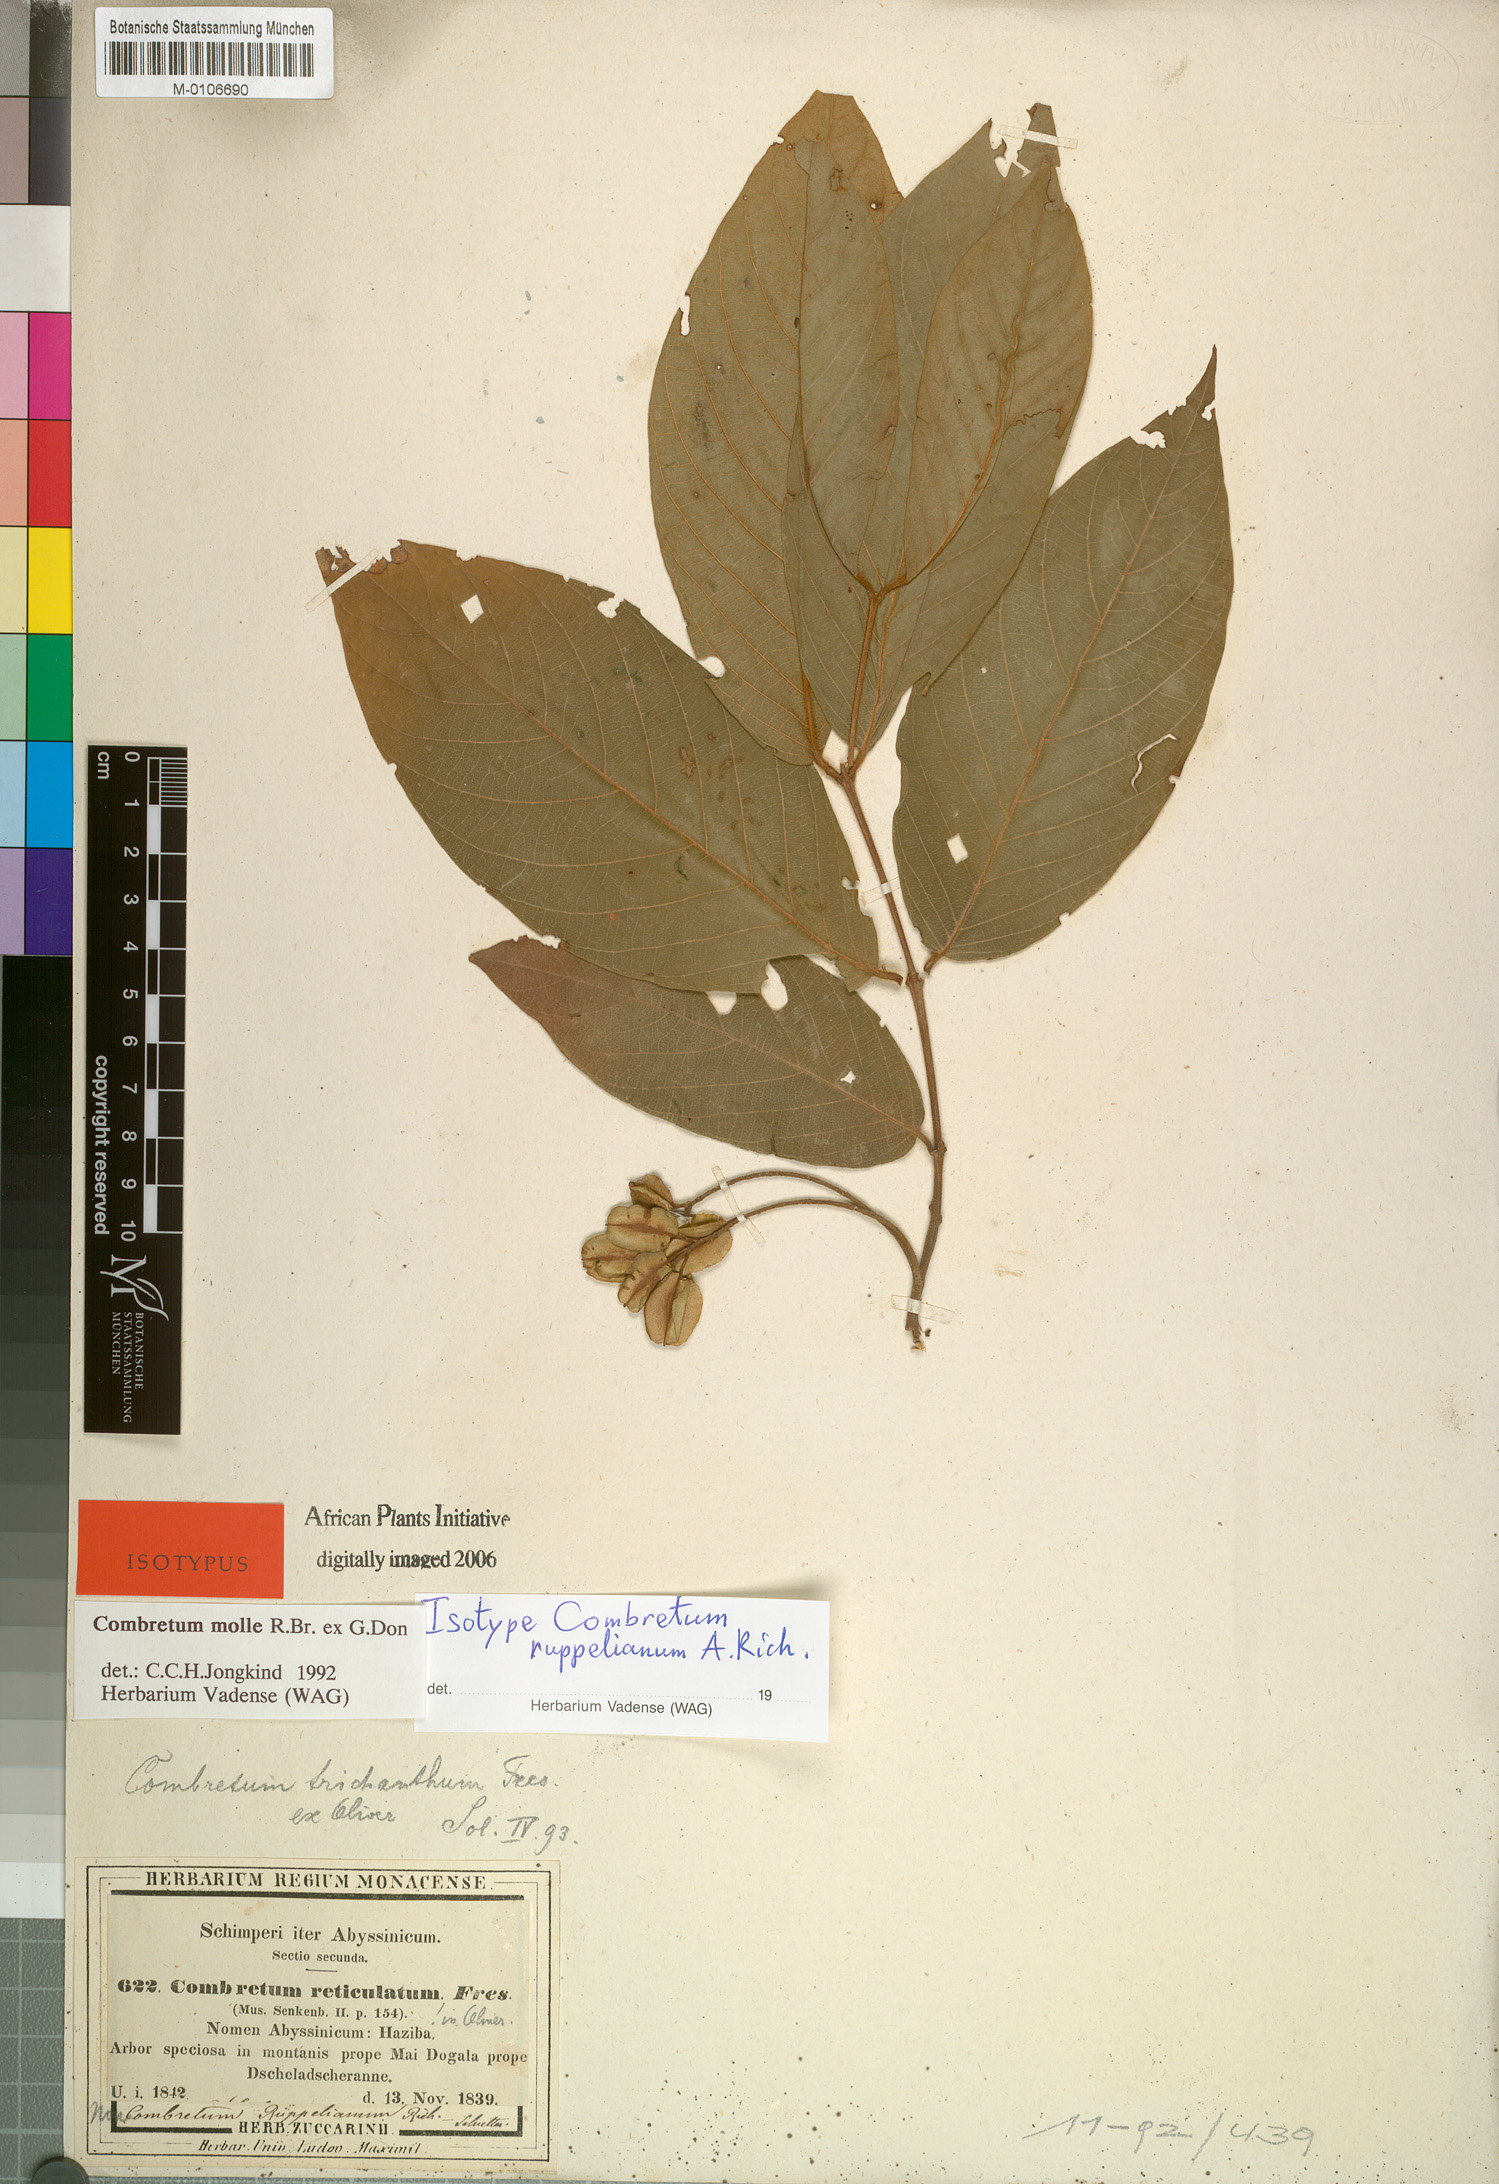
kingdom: Plantae
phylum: Tracheophyta
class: Magnoliopsida
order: Myrtales
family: Combretaceae
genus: Combretum
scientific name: Combretum molle
